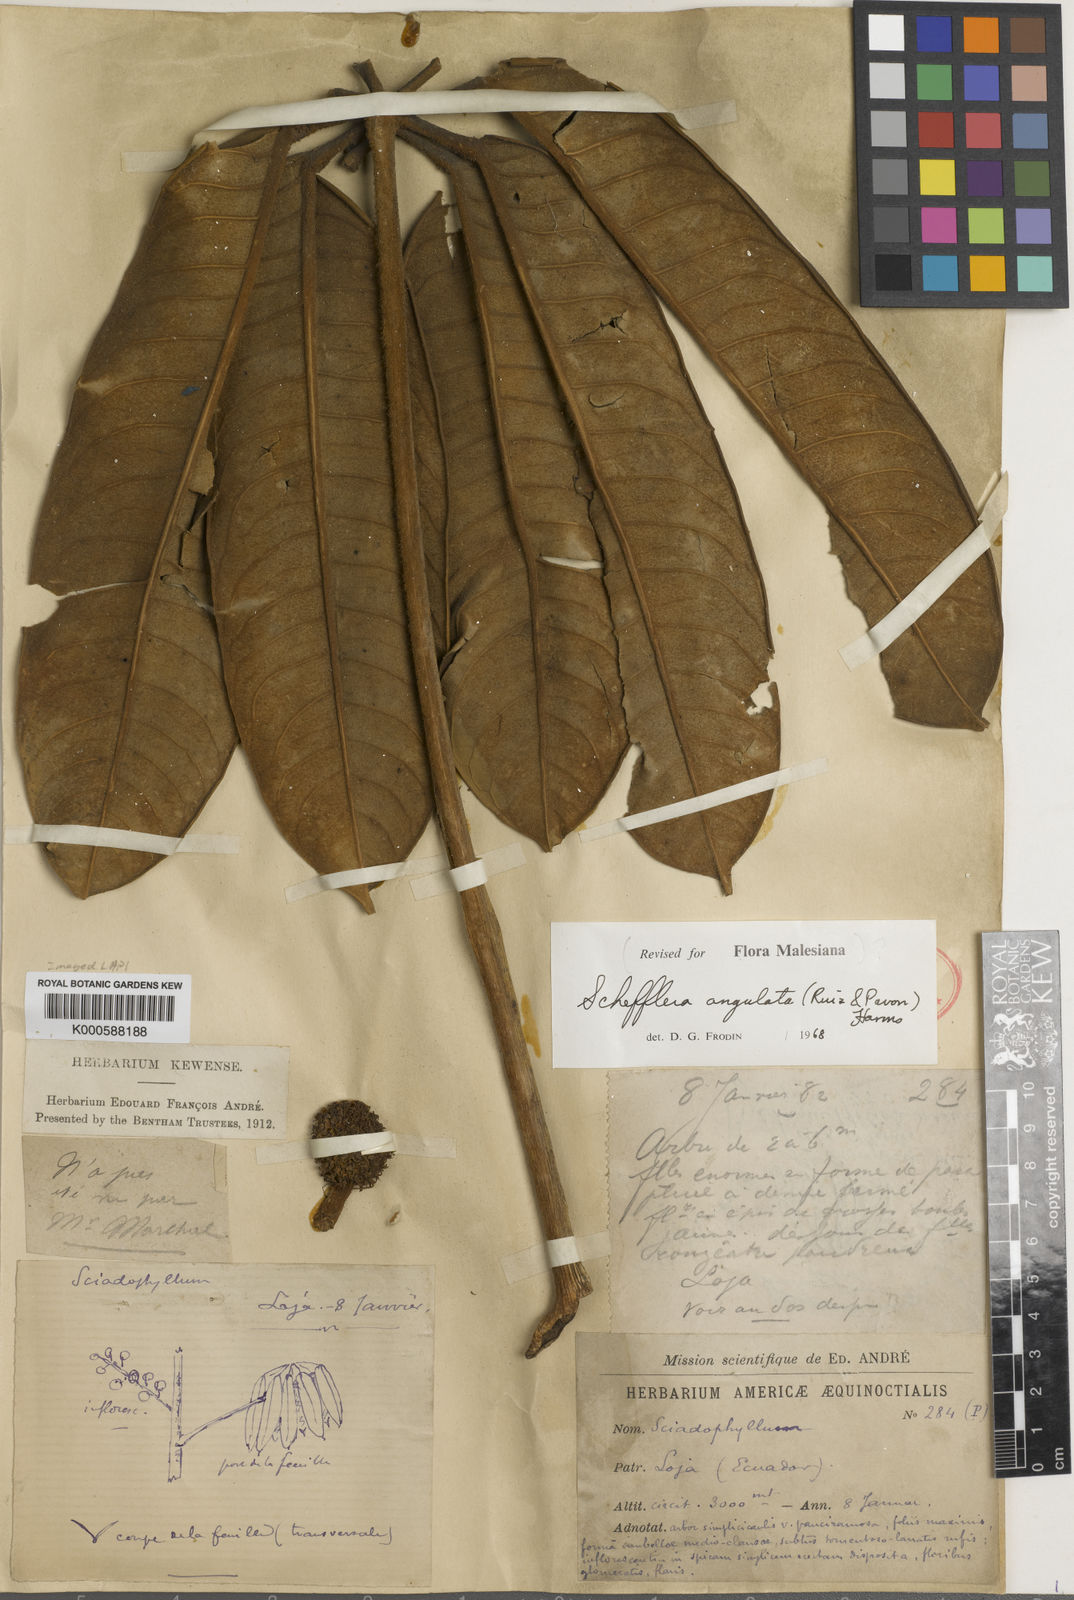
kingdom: Plantae
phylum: Tracheophyta
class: Magnoliopsida
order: Apiales
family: Araliaceae
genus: Schefflera
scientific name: Schefflera
